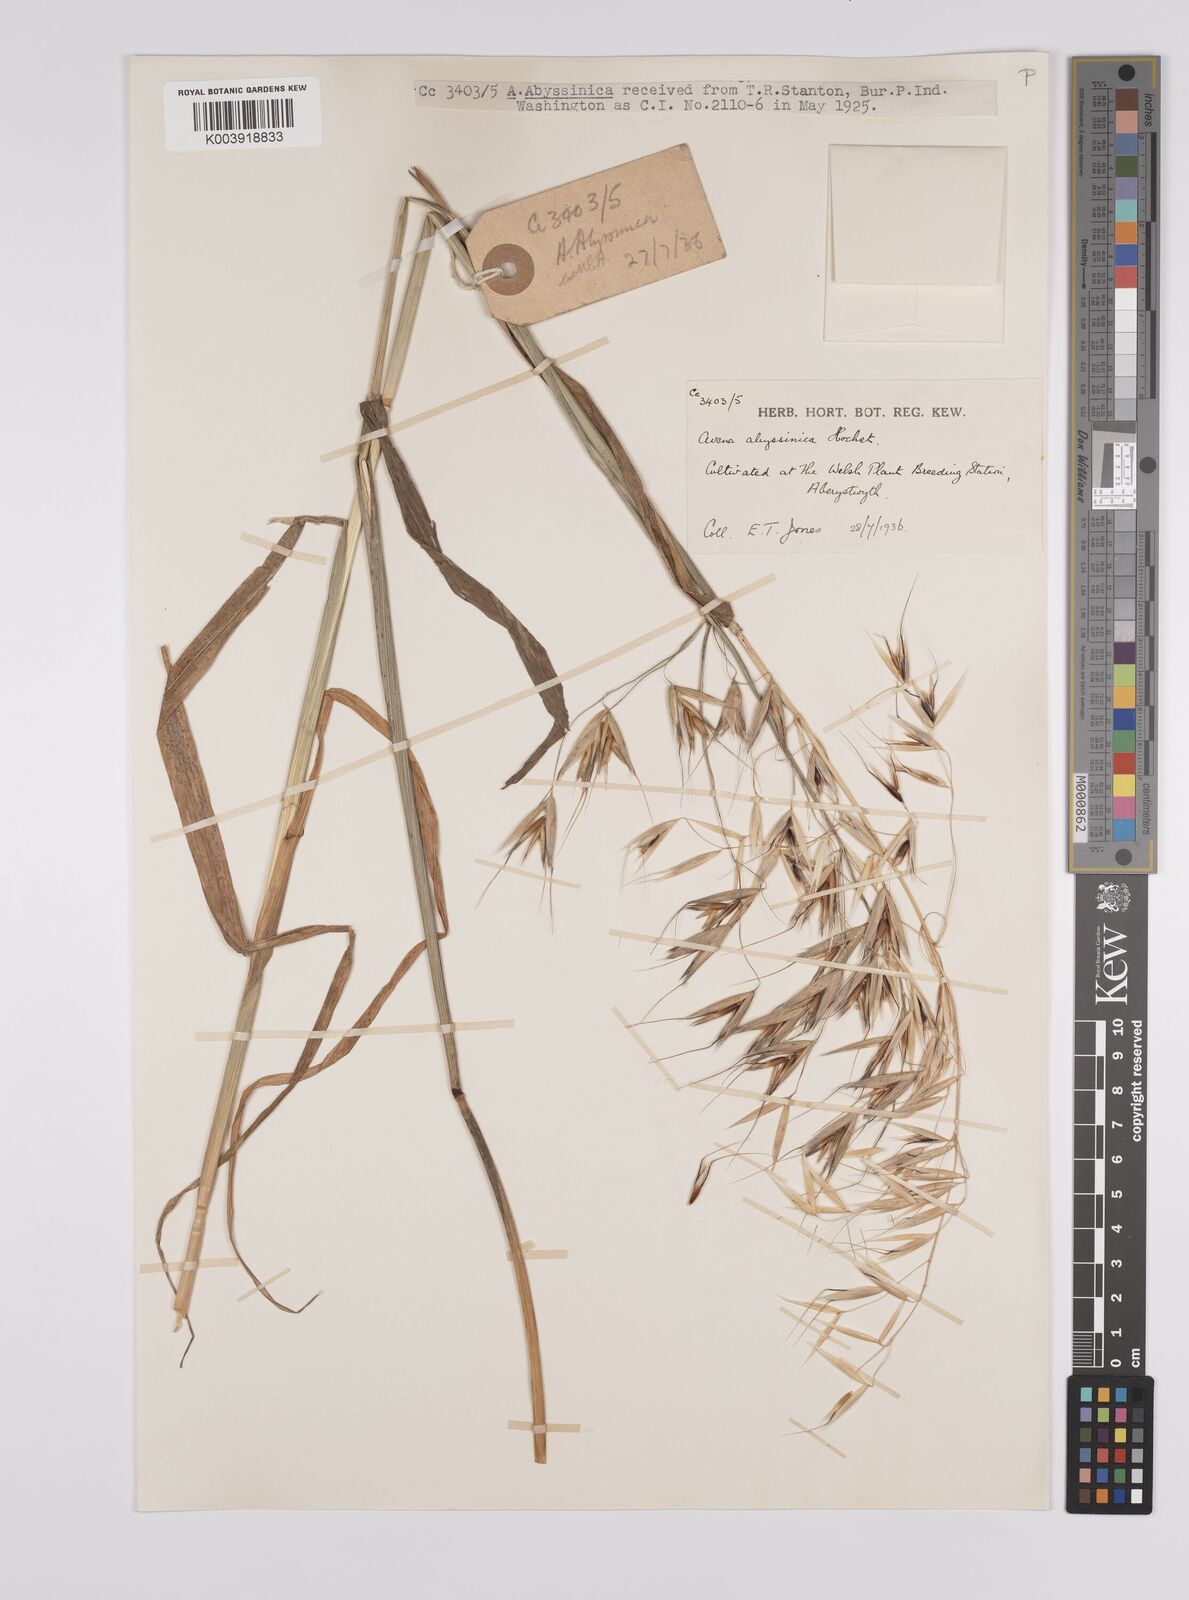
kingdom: Plantae
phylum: Tracheophyta
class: Liliopsida
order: Poales
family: Poaceae
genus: Avena
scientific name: Avena abyssinica
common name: Ethiopian oat
